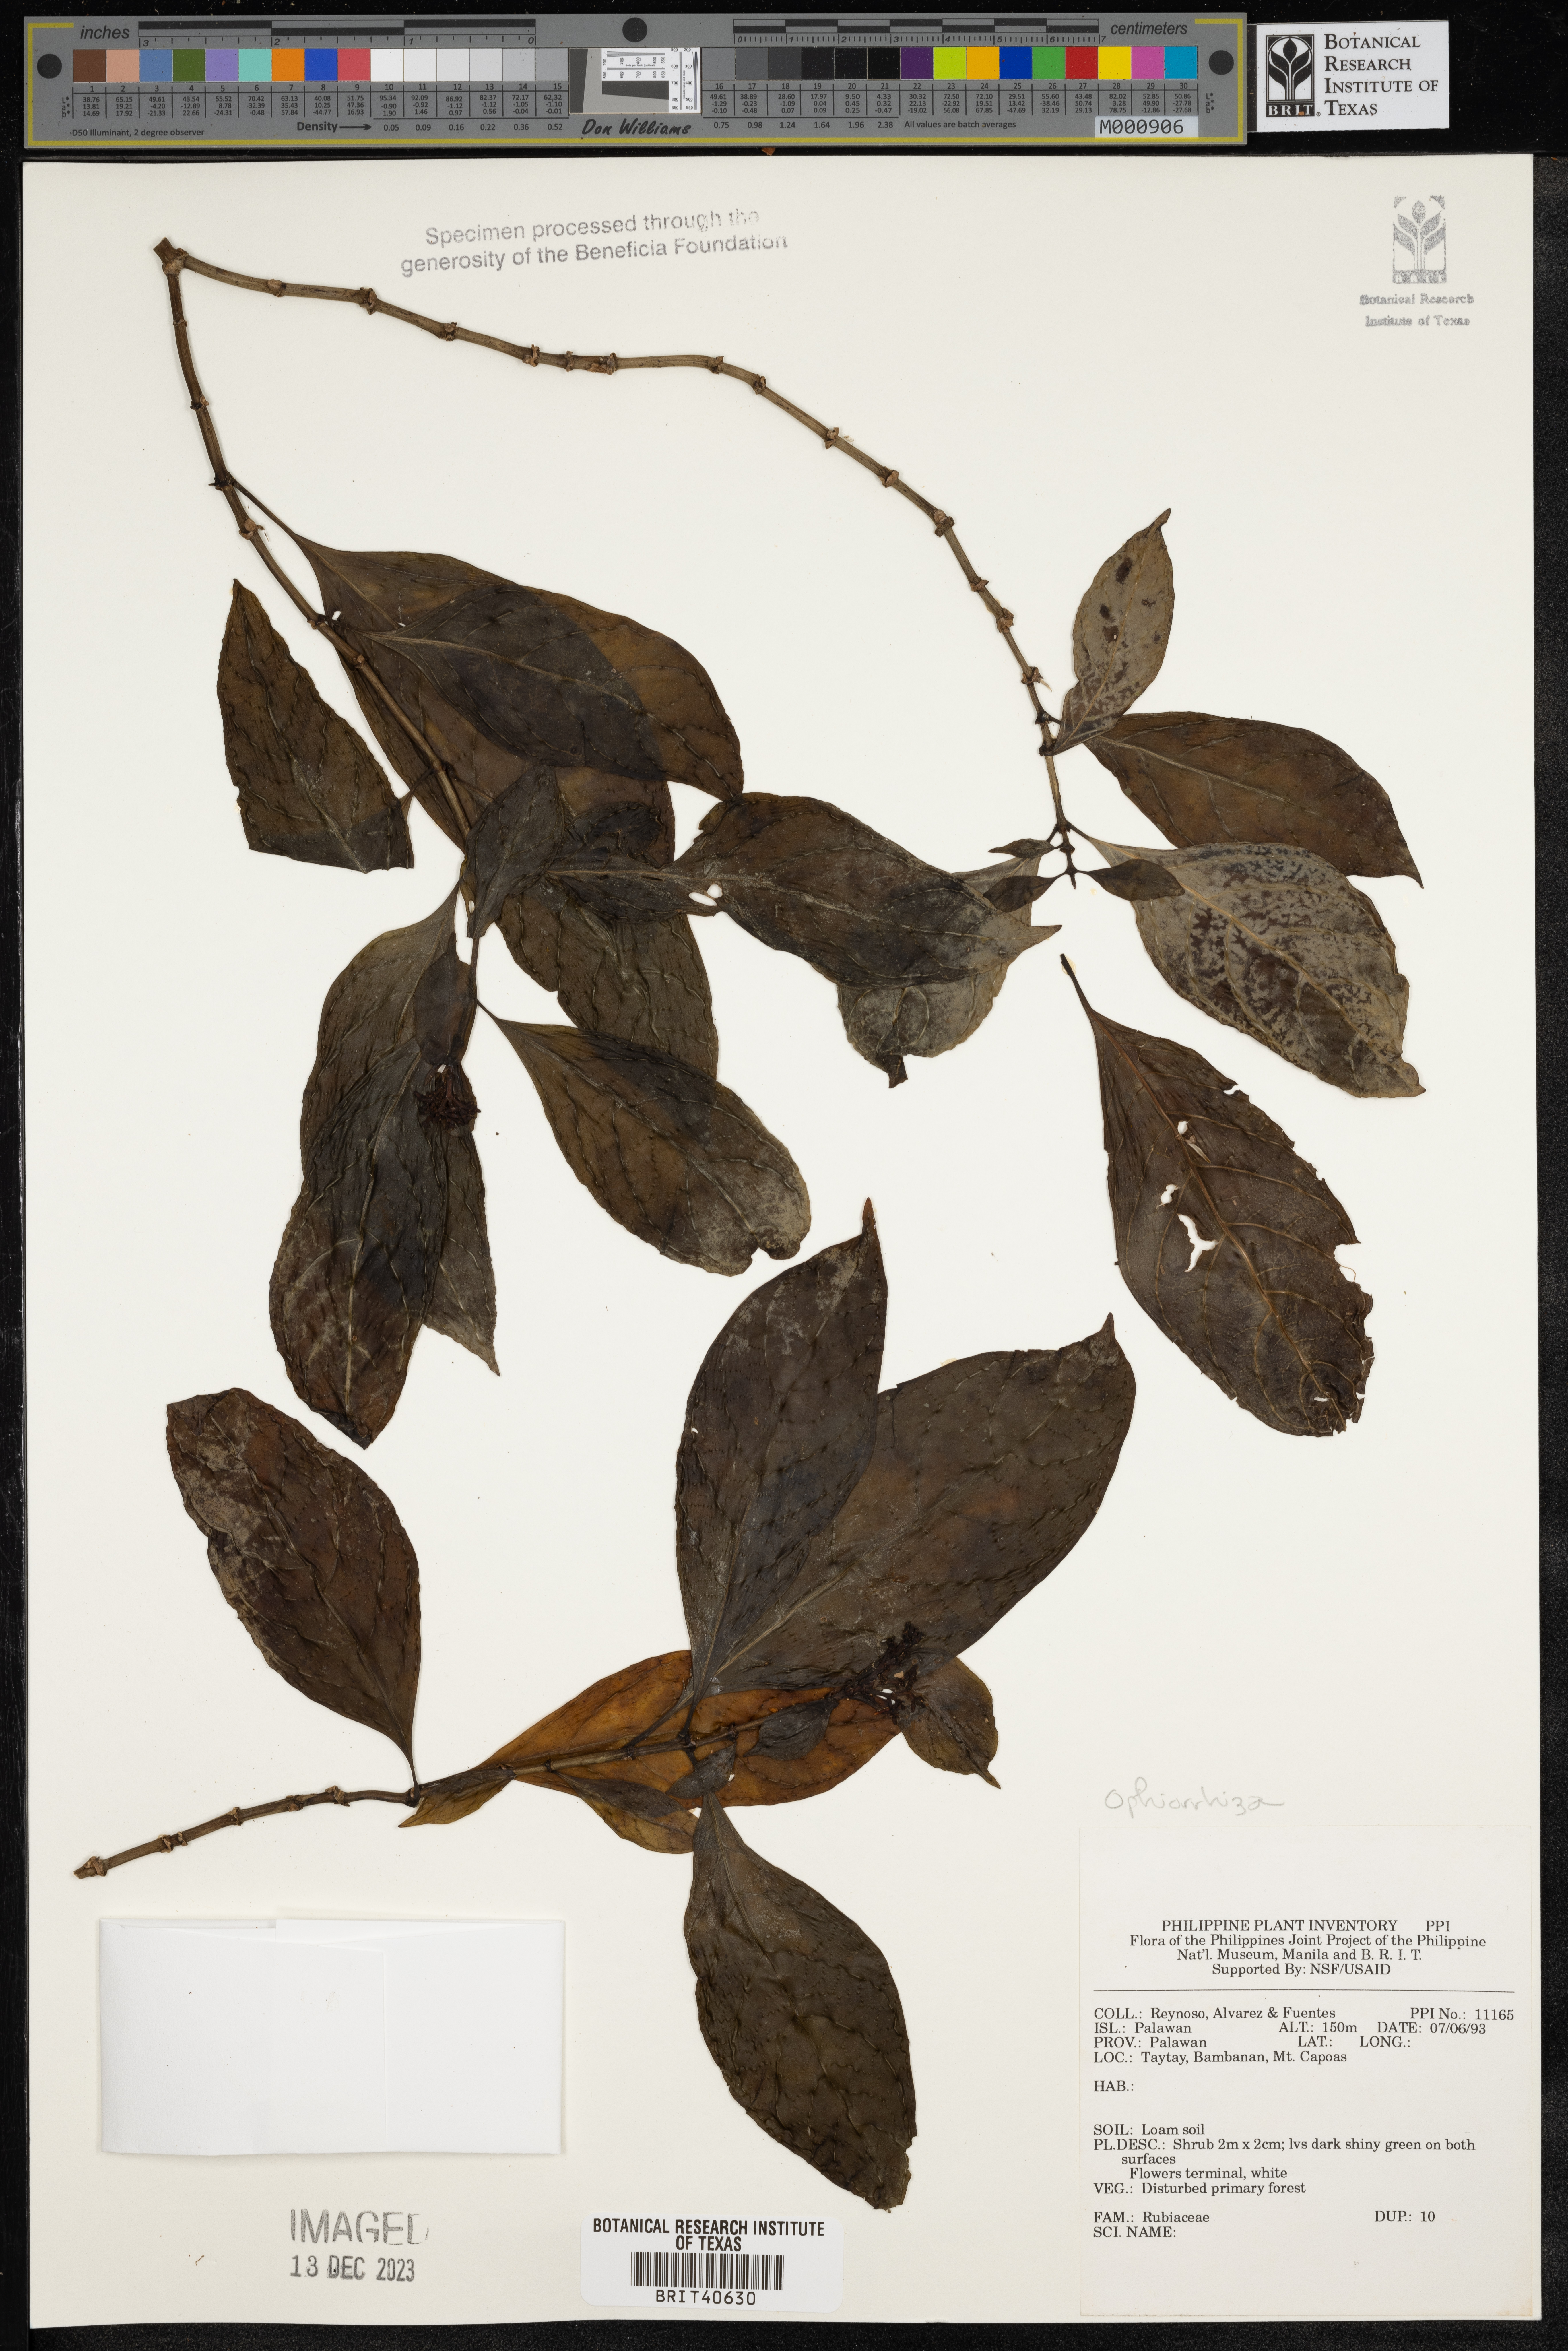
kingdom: Plantae
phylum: Tracheophyta
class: Magnoliopsida
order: Gentianales
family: Rubiaceae
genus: Ophiorrhiza
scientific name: Ophiorrhiza
